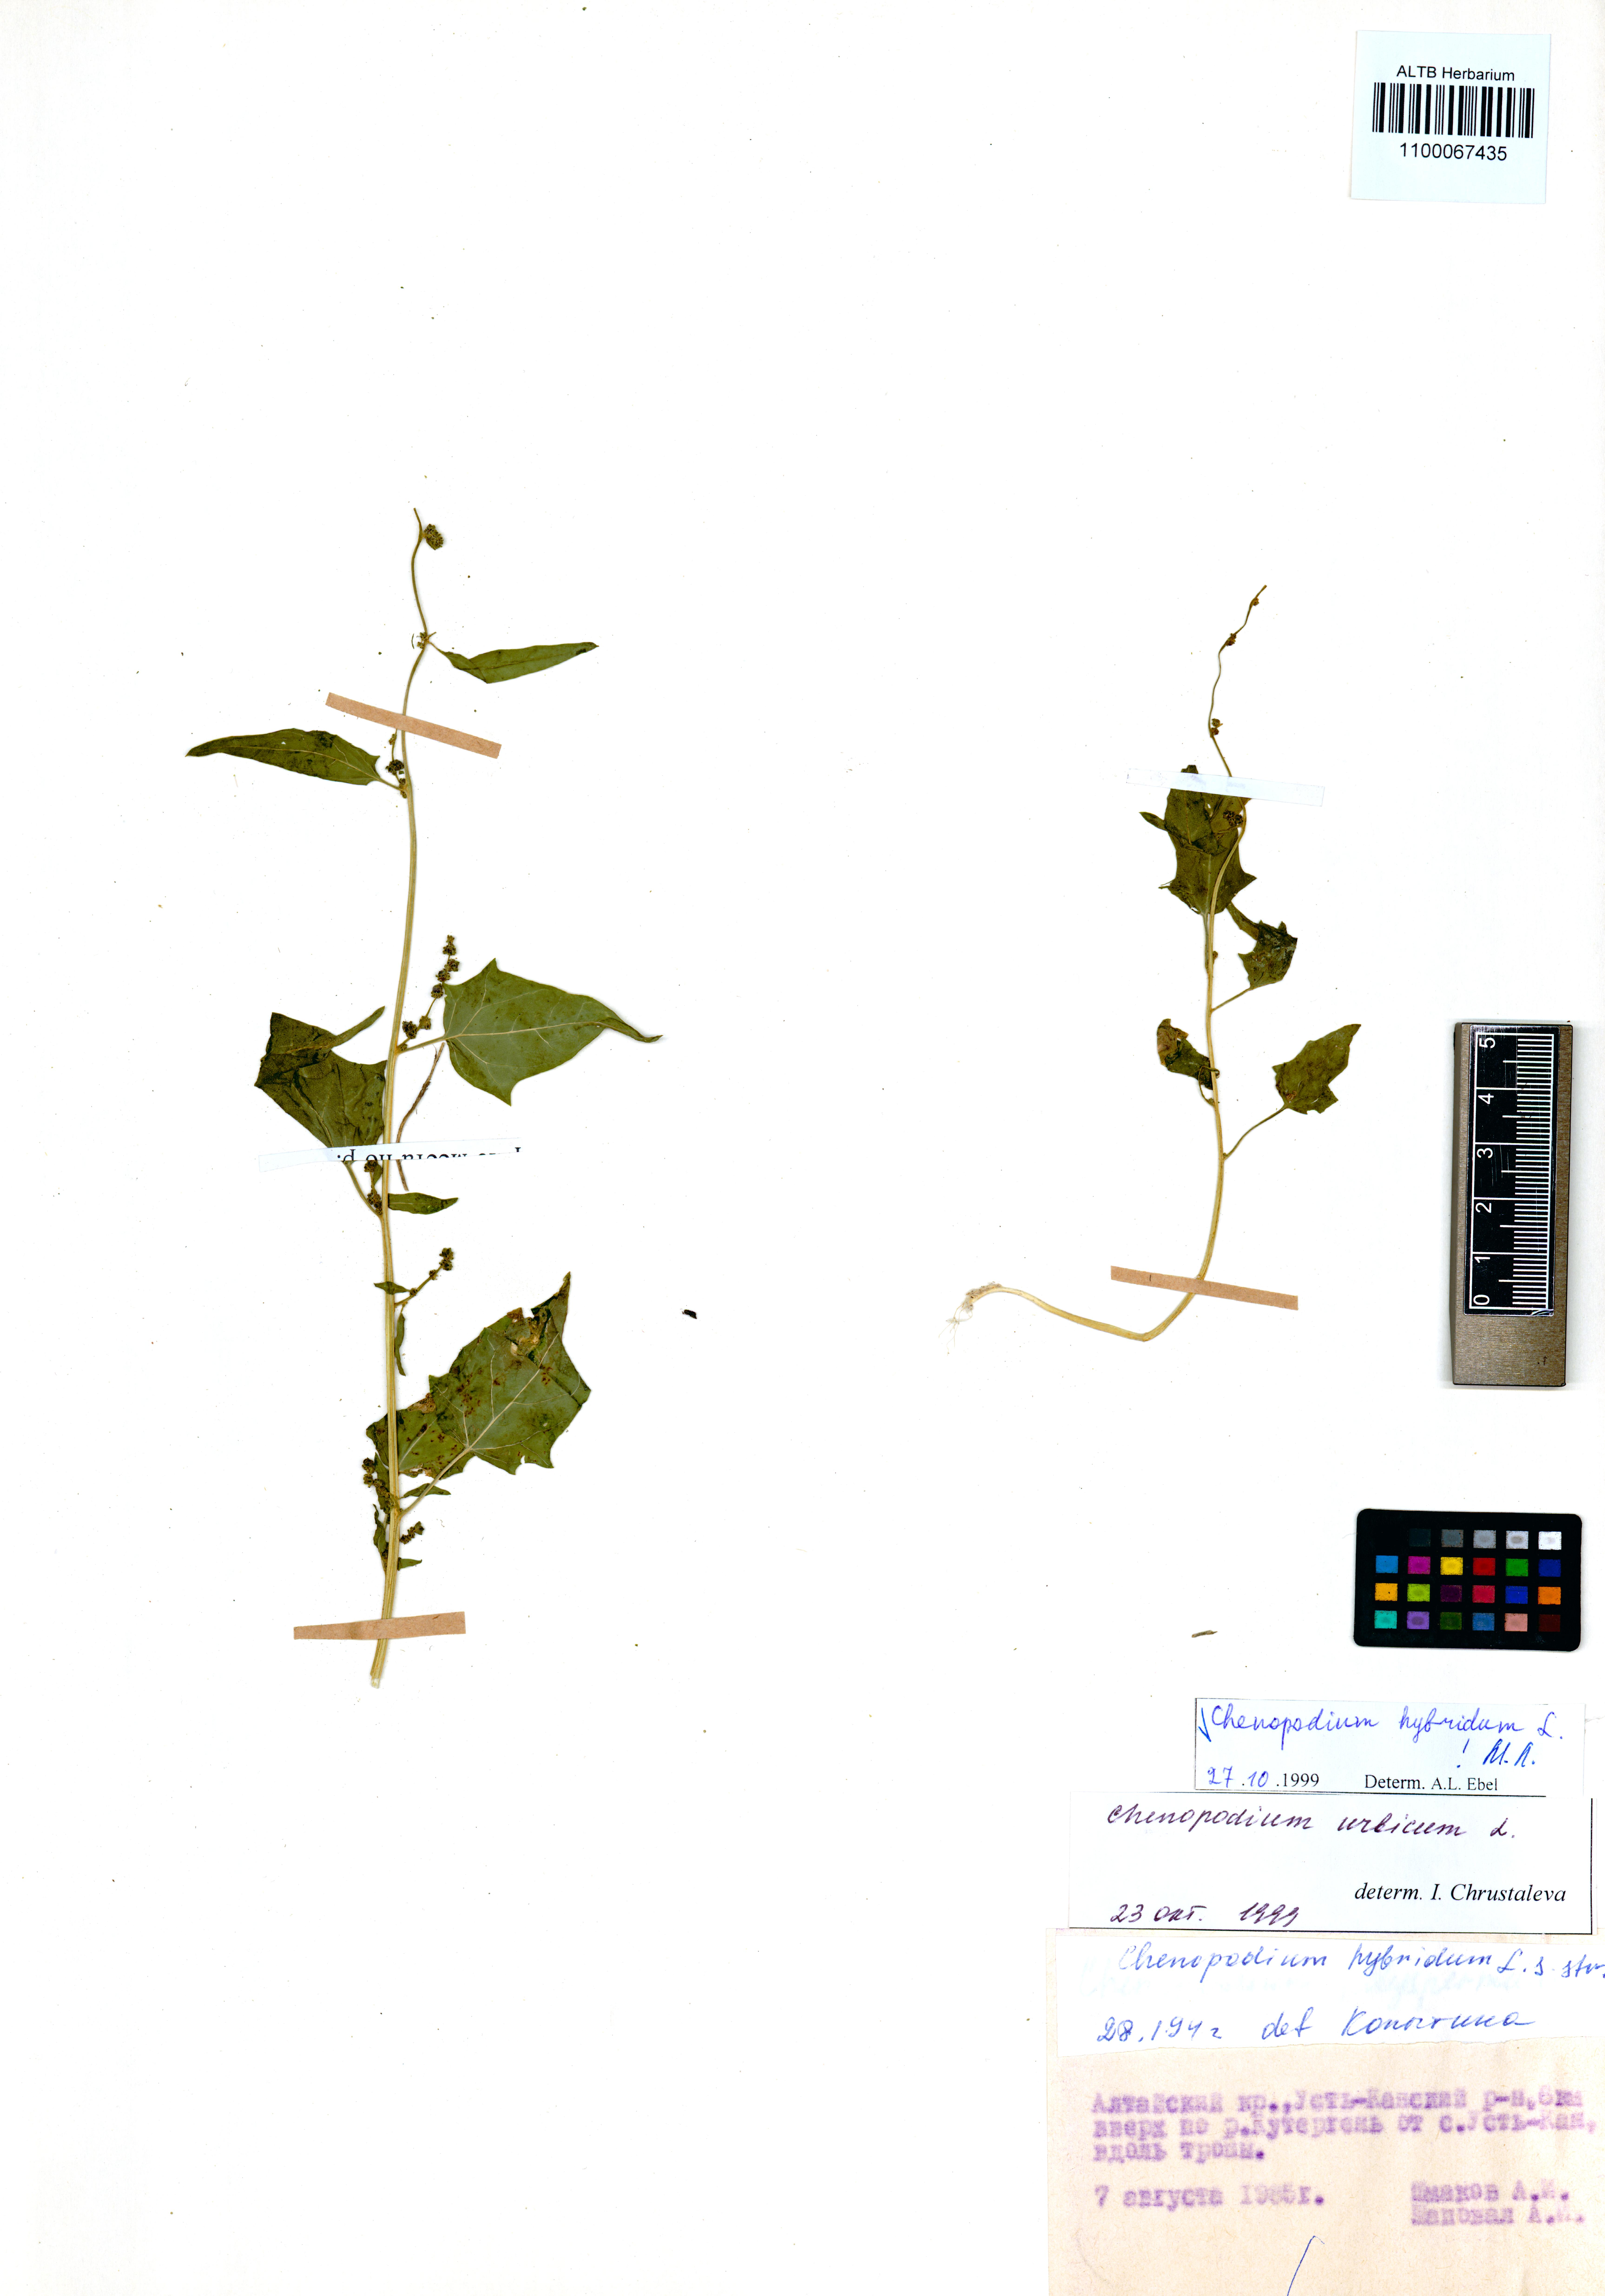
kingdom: Plantae
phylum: Tracheophyta
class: Magnoliopsida
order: Caryophyllales
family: Amaranthaceae
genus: Chenopodiastrum
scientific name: Chenopodiastrum hybridum
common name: Mapleleaf goosefoot
